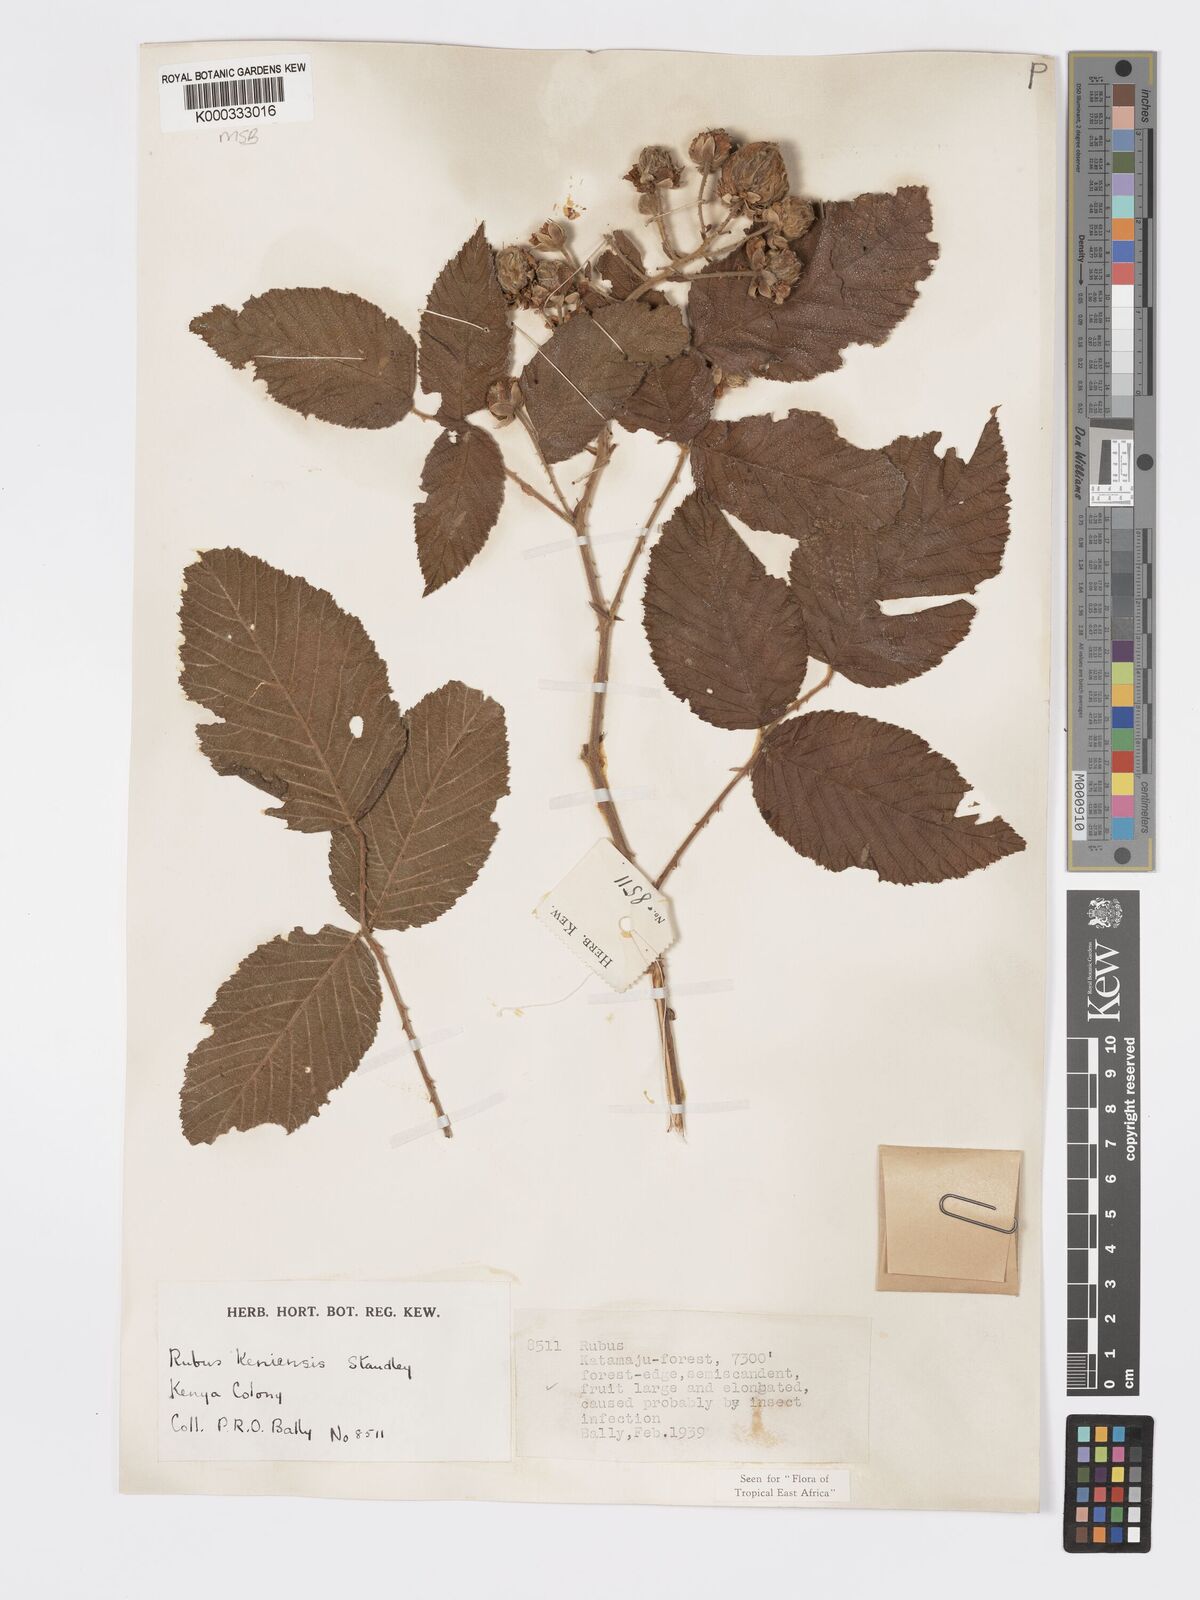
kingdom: Plantae
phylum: Tracheophyta
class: Magnoliopsida
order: Rosales
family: Rosaceae
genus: Rubus
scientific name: Rubus keniensis
